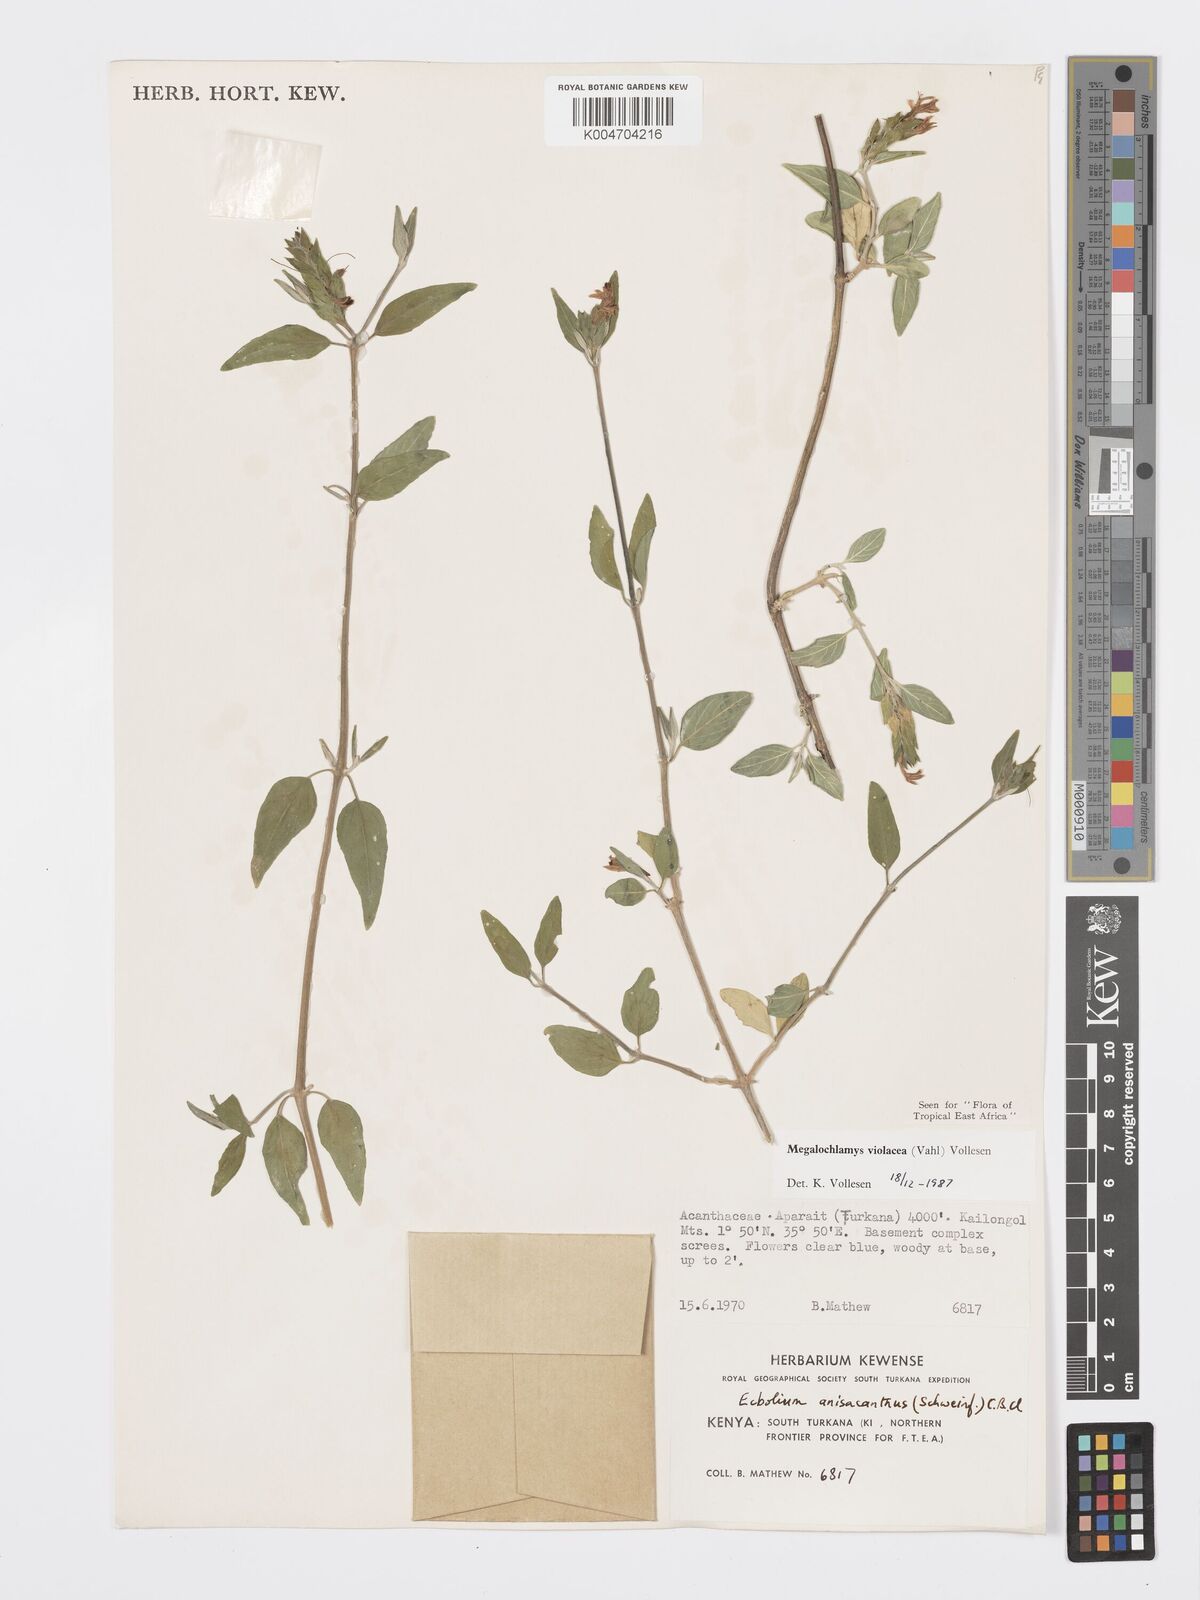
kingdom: Plantae
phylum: Tracheophyta
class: Magnoliopsida
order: Lamiales
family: Acanthaceae
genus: Megalochlamys
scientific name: Megalochlamys violacea
